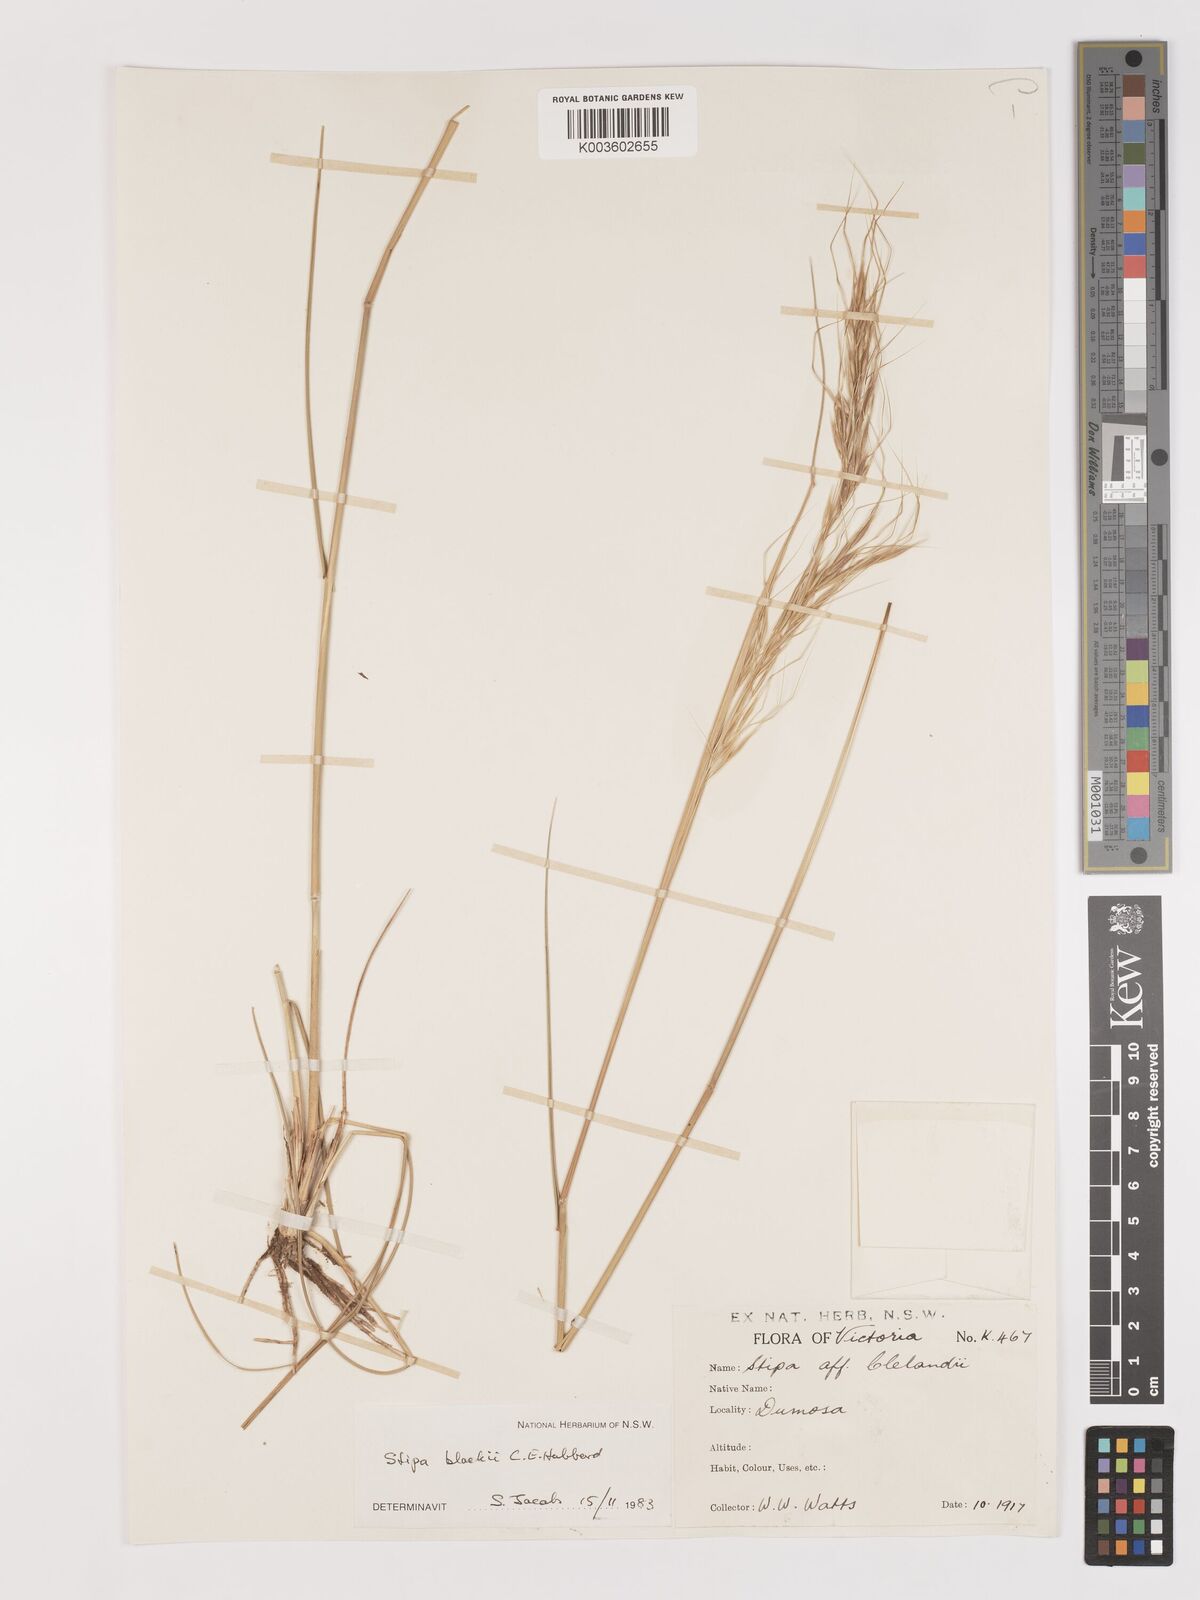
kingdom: Plantae
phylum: Tracheophyta
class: Liliopsida
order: Poales
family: Poaceae
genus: Austrostipa
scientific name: Austrostipa blackii
